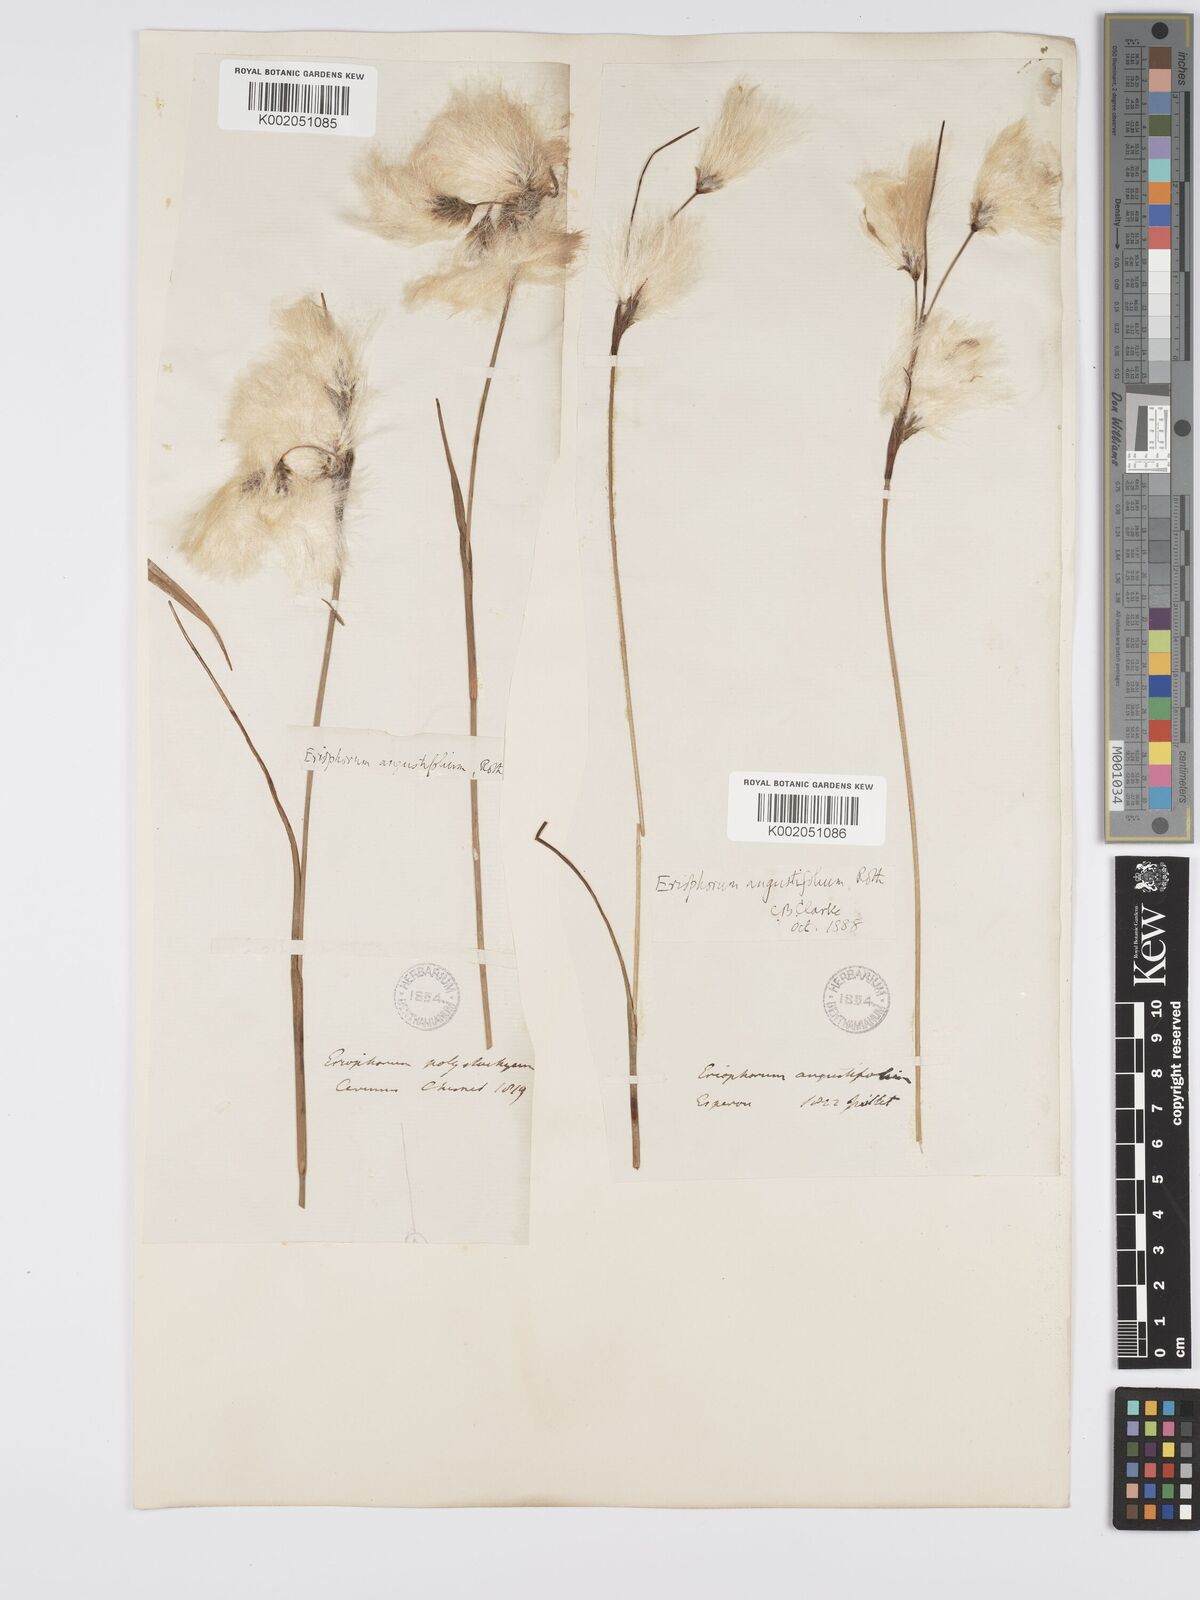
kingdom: Plantae
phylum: Tracheophyta
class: Liliopsida
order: Poales
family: Cyperaceae
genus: Eriophorum
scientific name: Eriophorum angustifolium
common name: Common cottongrass
